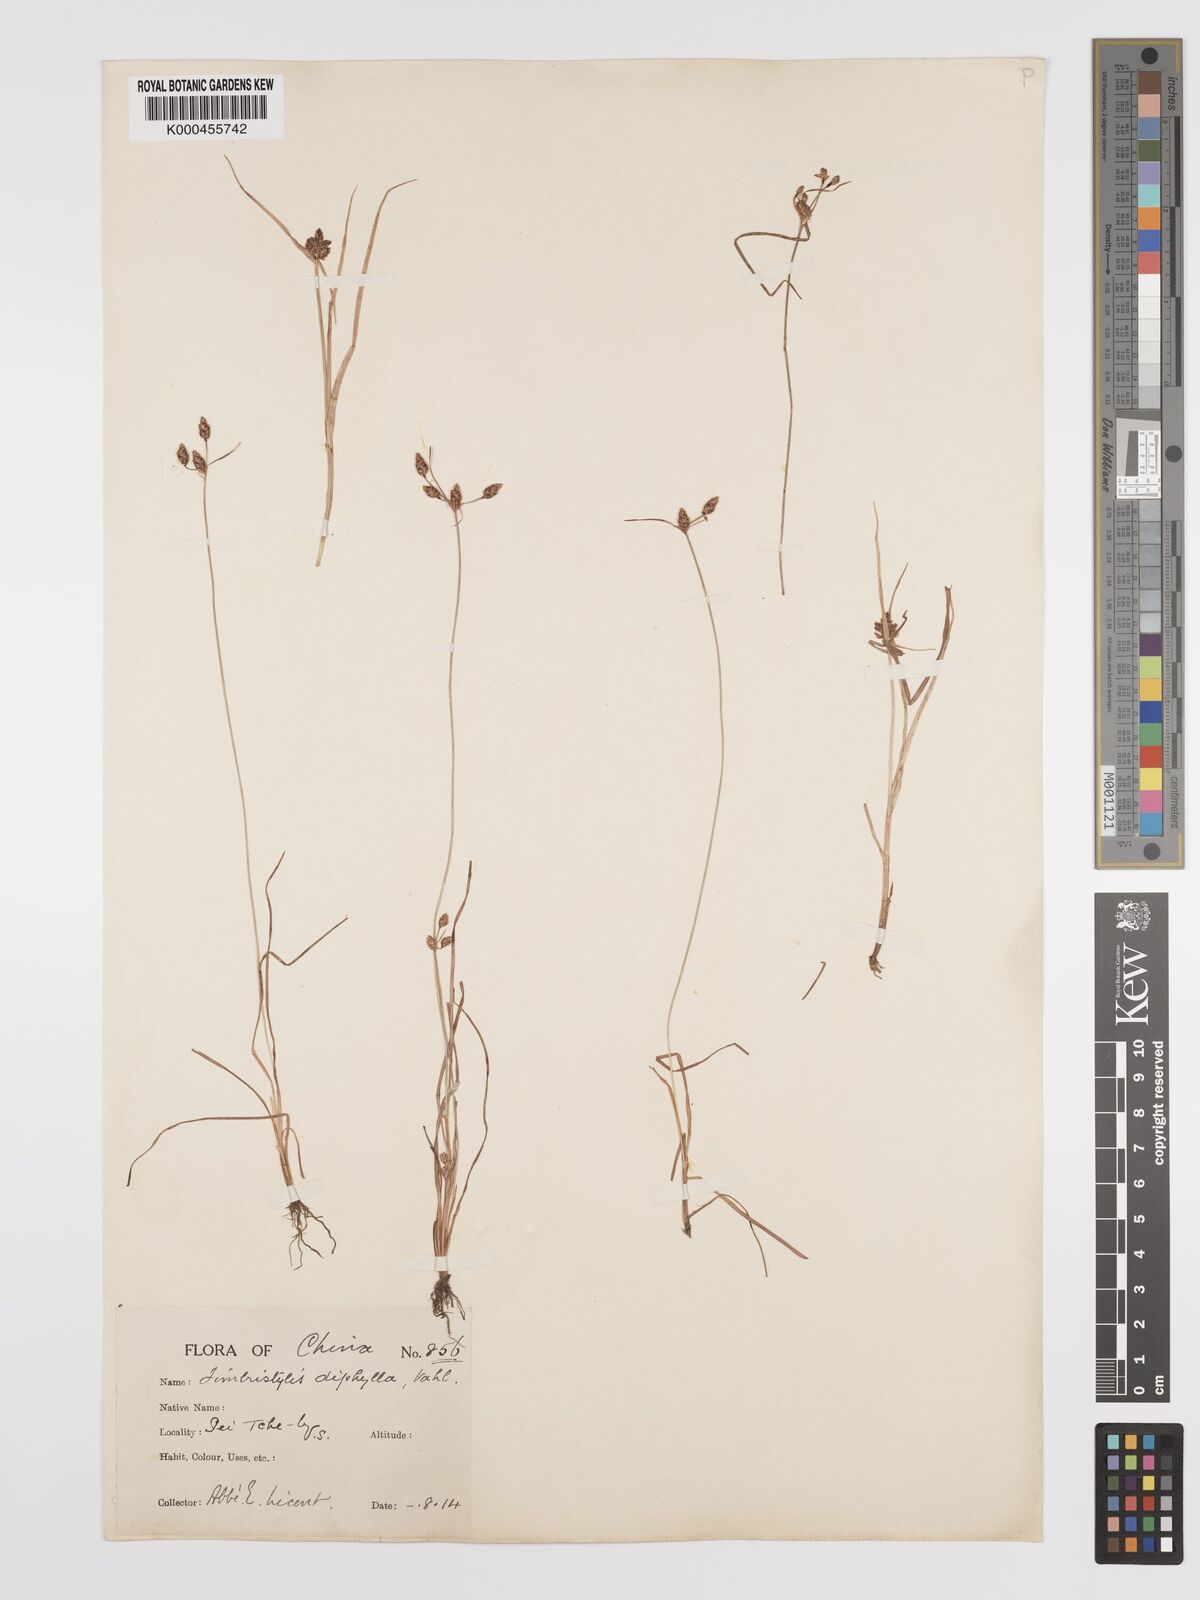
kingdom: Plantae
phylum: Tracheophyta
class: Liliopsida
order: Poales
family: Cyperaceae
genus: Fimbristylis
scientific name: Fimbristylis dichotoma
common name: Forked fimbry
